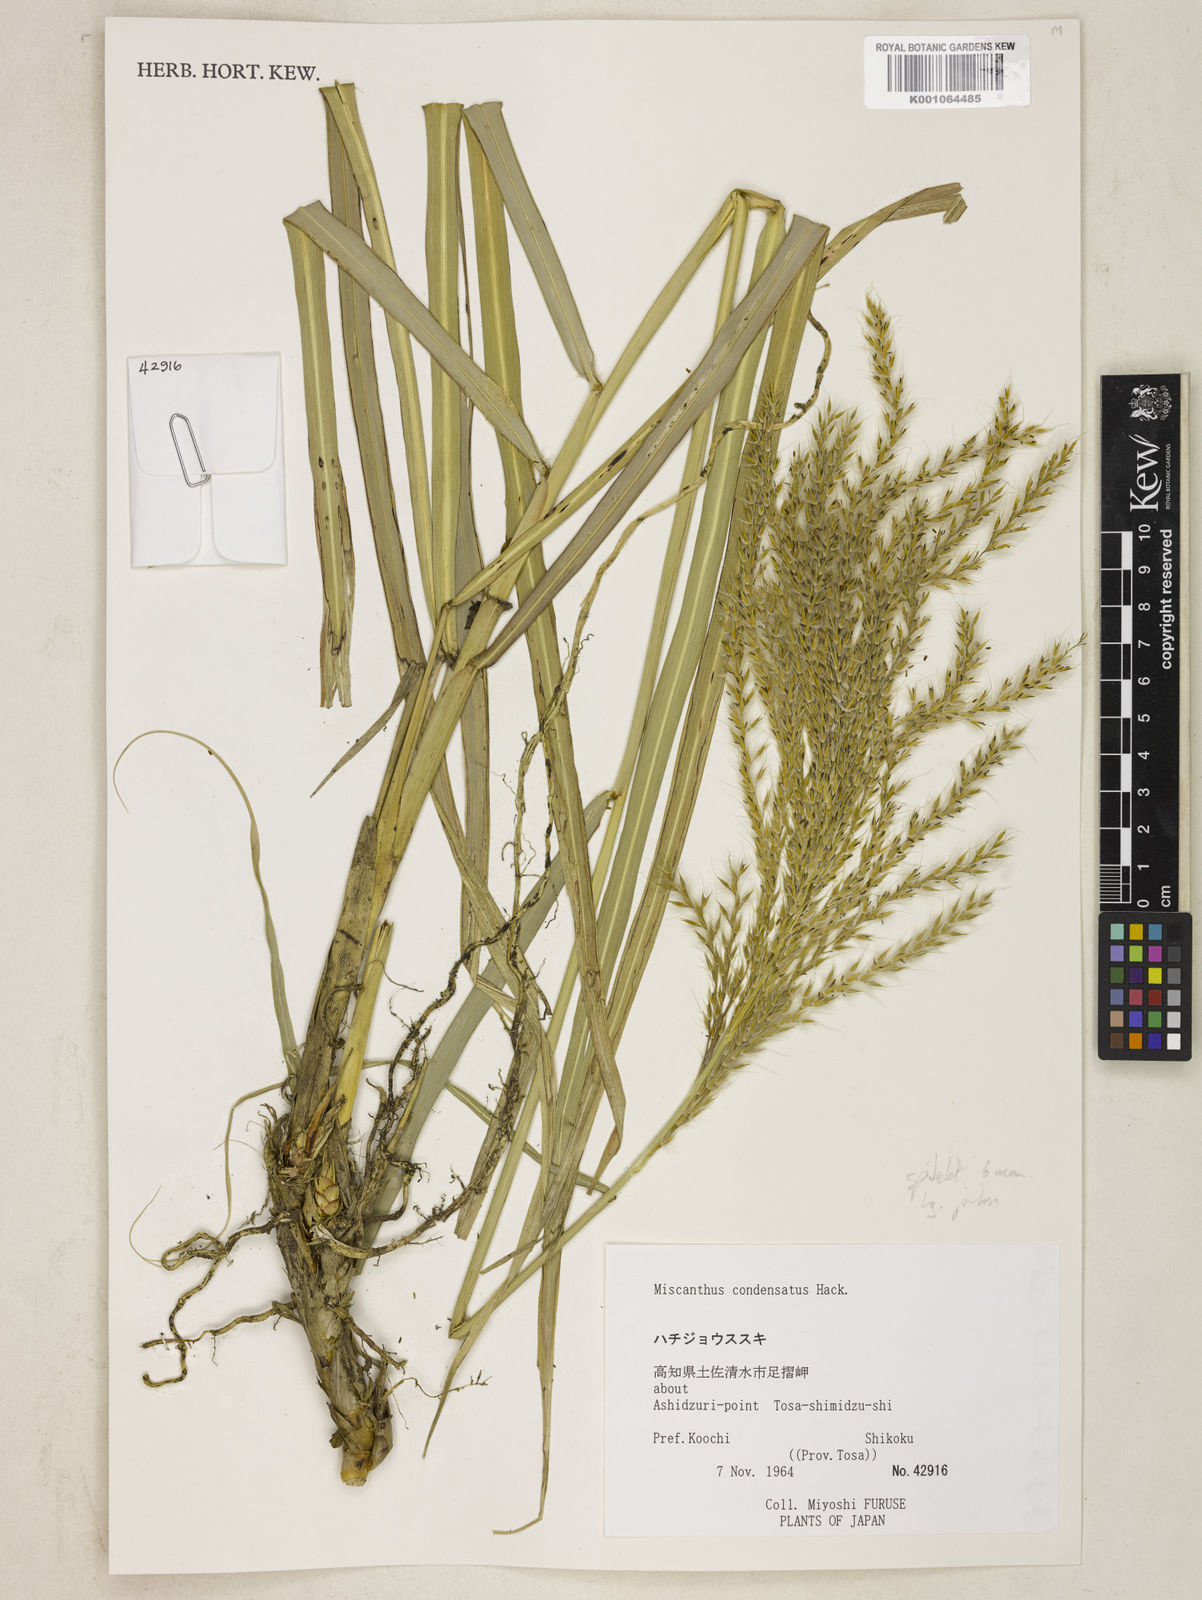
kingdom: Plantae
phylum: Tracheophyta
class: Liliopsida
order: Poales
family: Poaceae
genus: Miscanthus
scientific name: Miscanthus sinensis
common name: Chinese silvergrass
